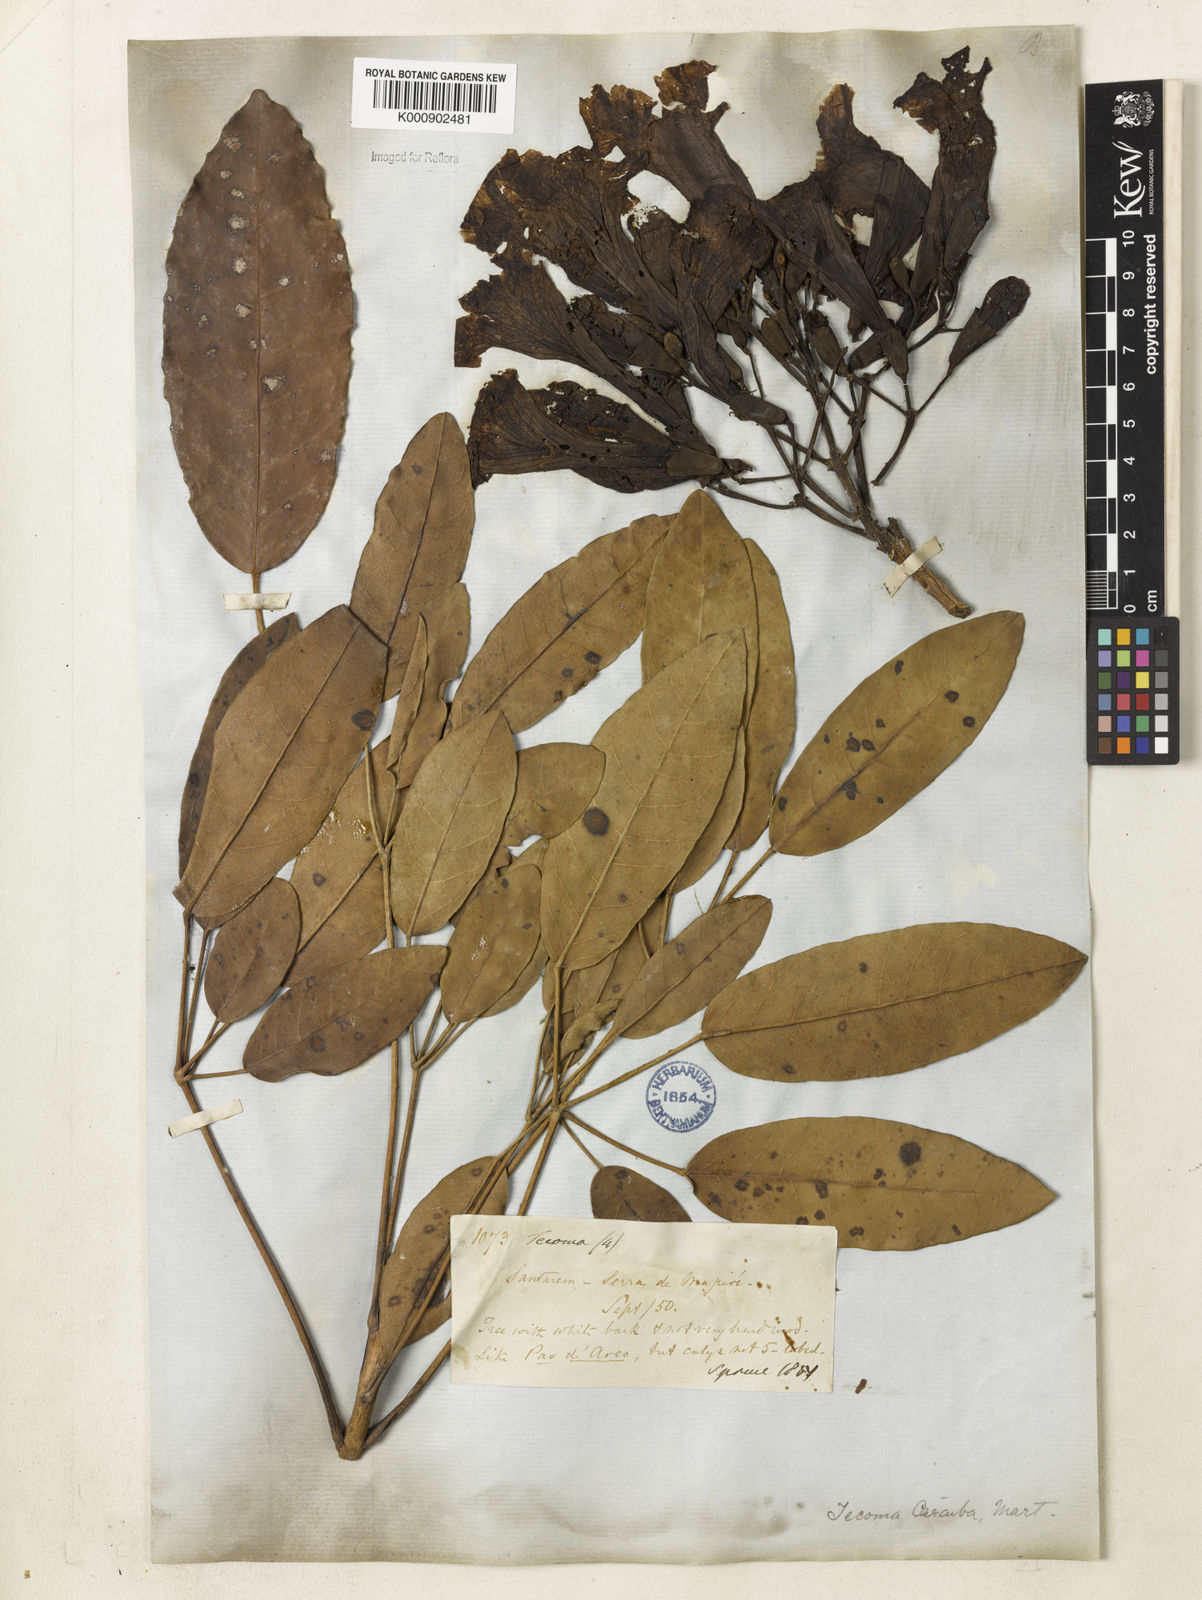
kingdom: Plantae
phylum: Tracheophyta
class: Magnoliopsida
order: Lamiales
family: Bignoniaceae
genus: Tabebuia
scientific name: Tabebuia aurea
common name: Caribbean trumpet-tree
